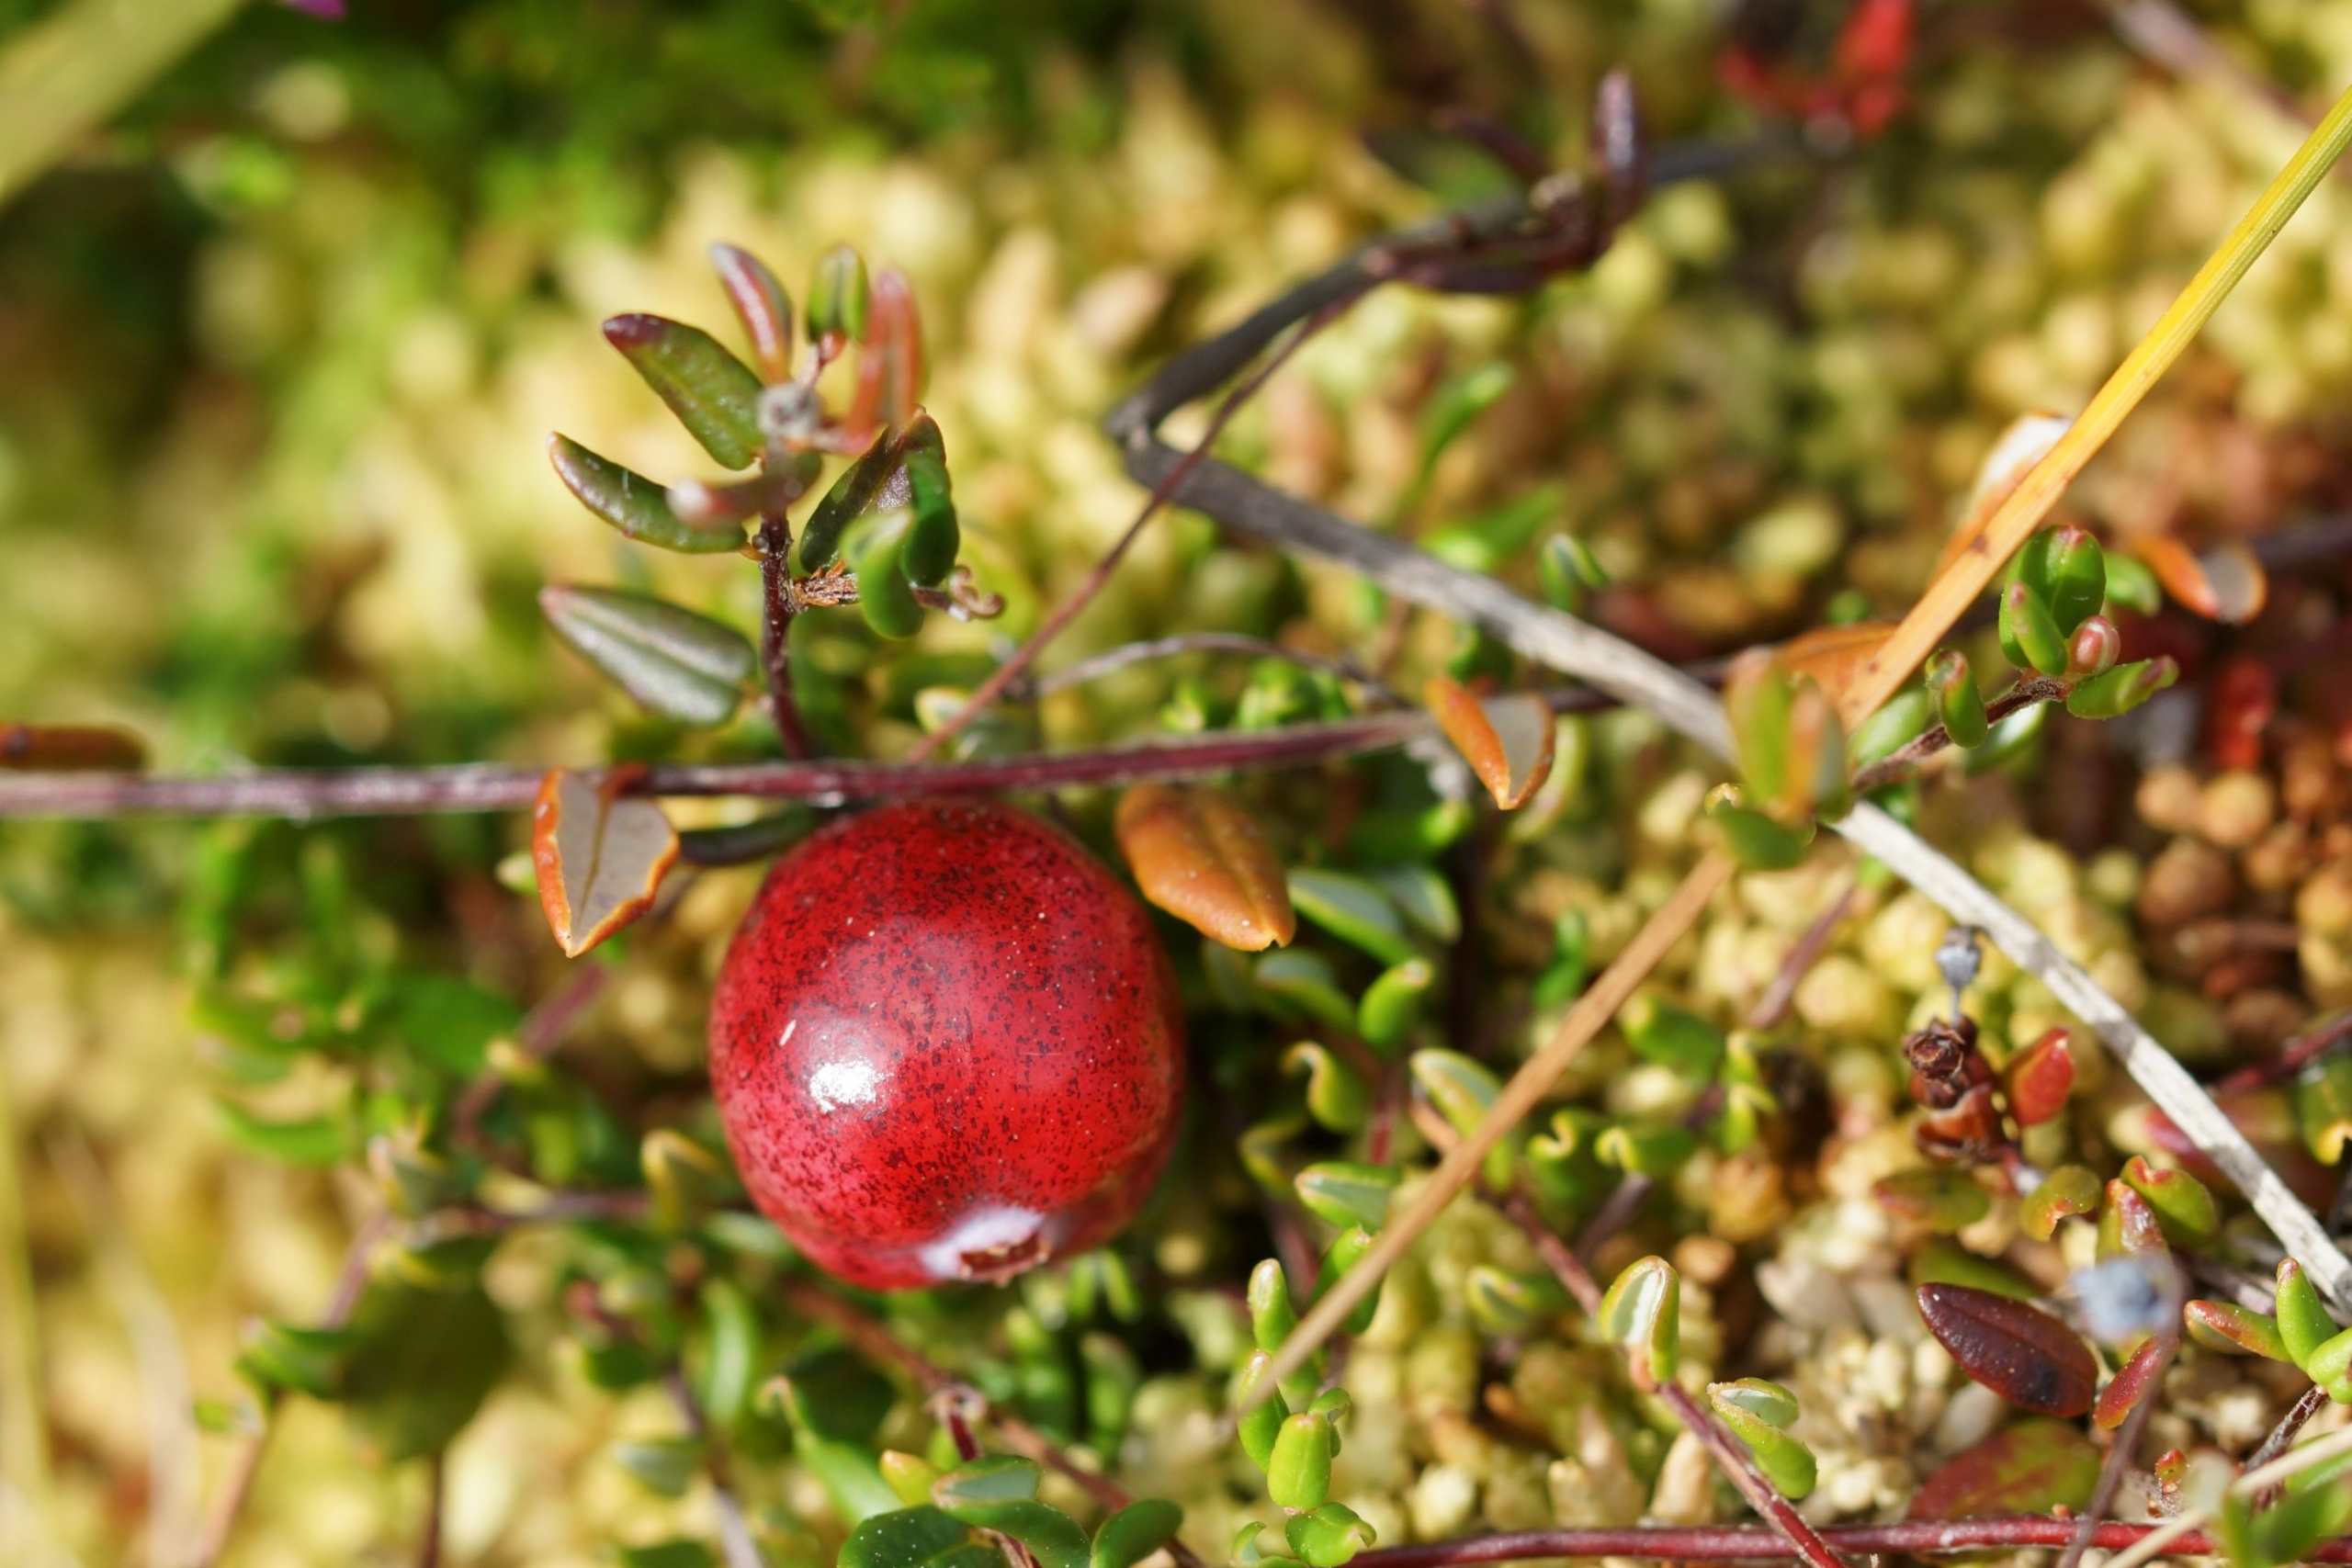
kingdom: Plantae
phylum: Tracheophyta
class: Magnoliopsida
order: Ericales
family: Ericaceae
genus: Vaccinium
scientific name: Vaccinium oxycoccos
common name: Tranebær
